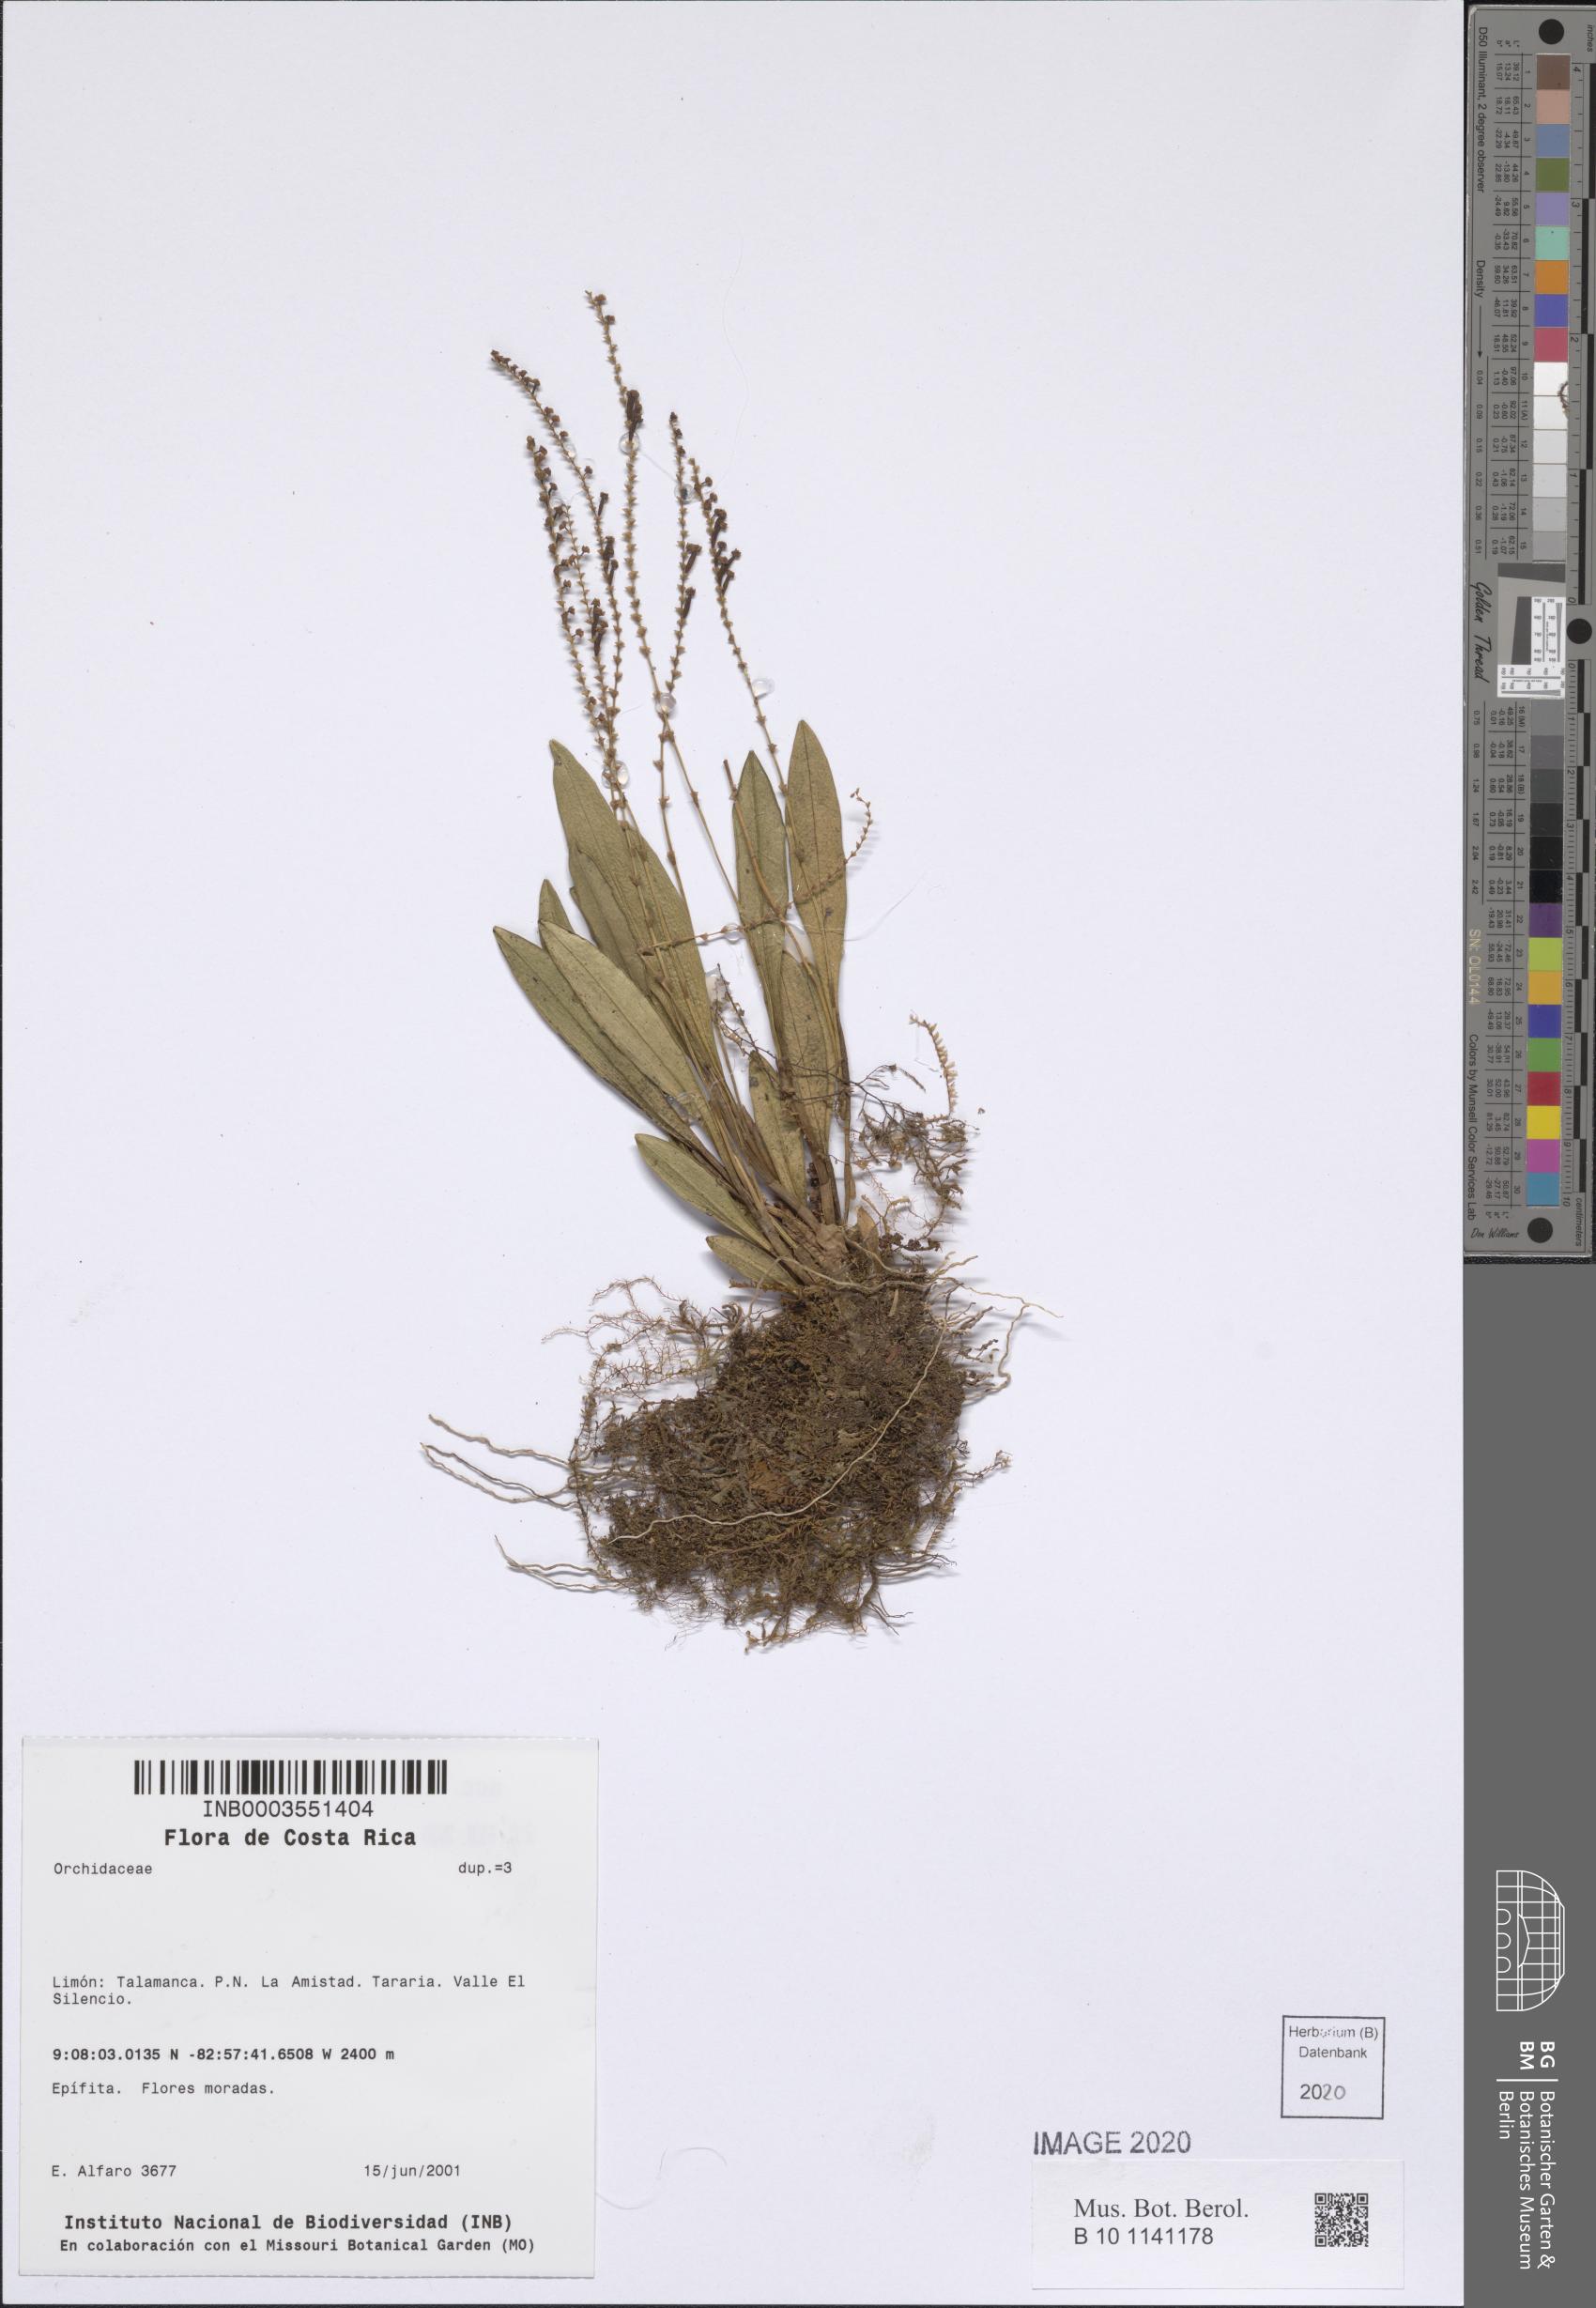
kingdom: Plantae
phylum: Tracheophyta
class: Liliopsida
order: Asparagales
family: Orchidaceae
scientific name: Orchidaceae
